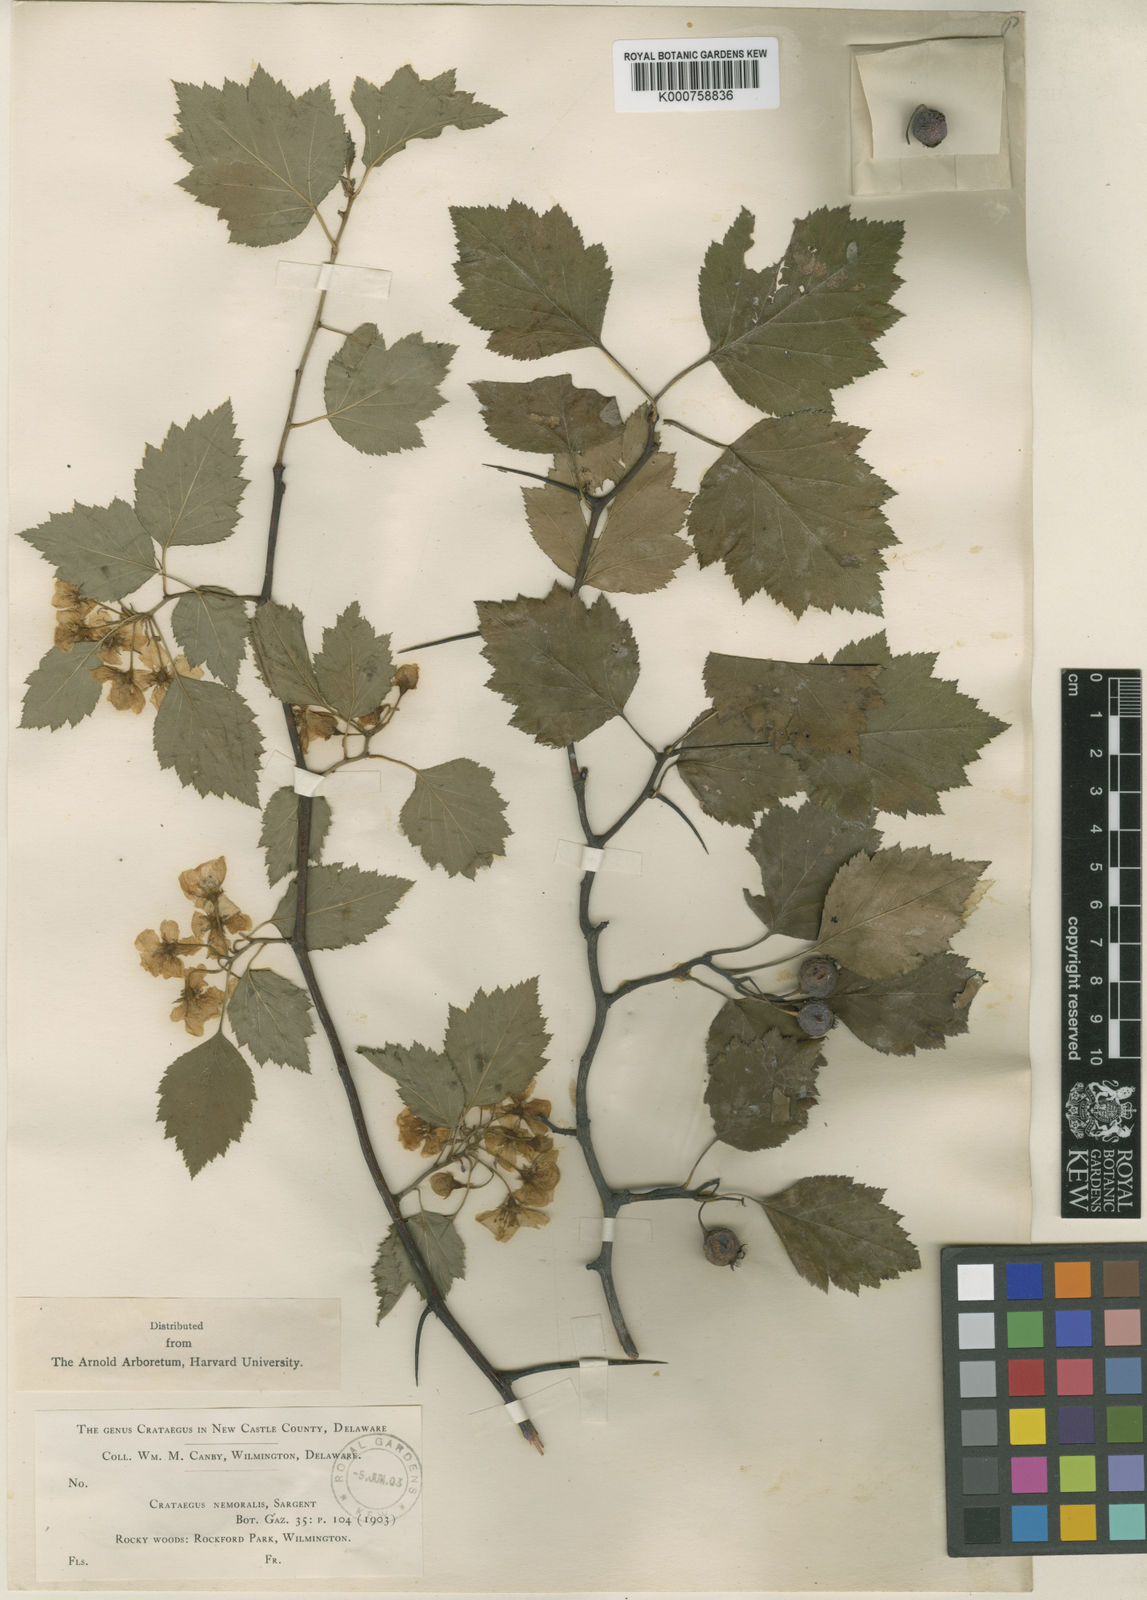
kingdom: Plantae
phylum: Tracheophyta
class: Magnoliopsida
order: Rosales
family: Rosaceae
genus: Crataegus
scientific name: Crataegus nemoralis
